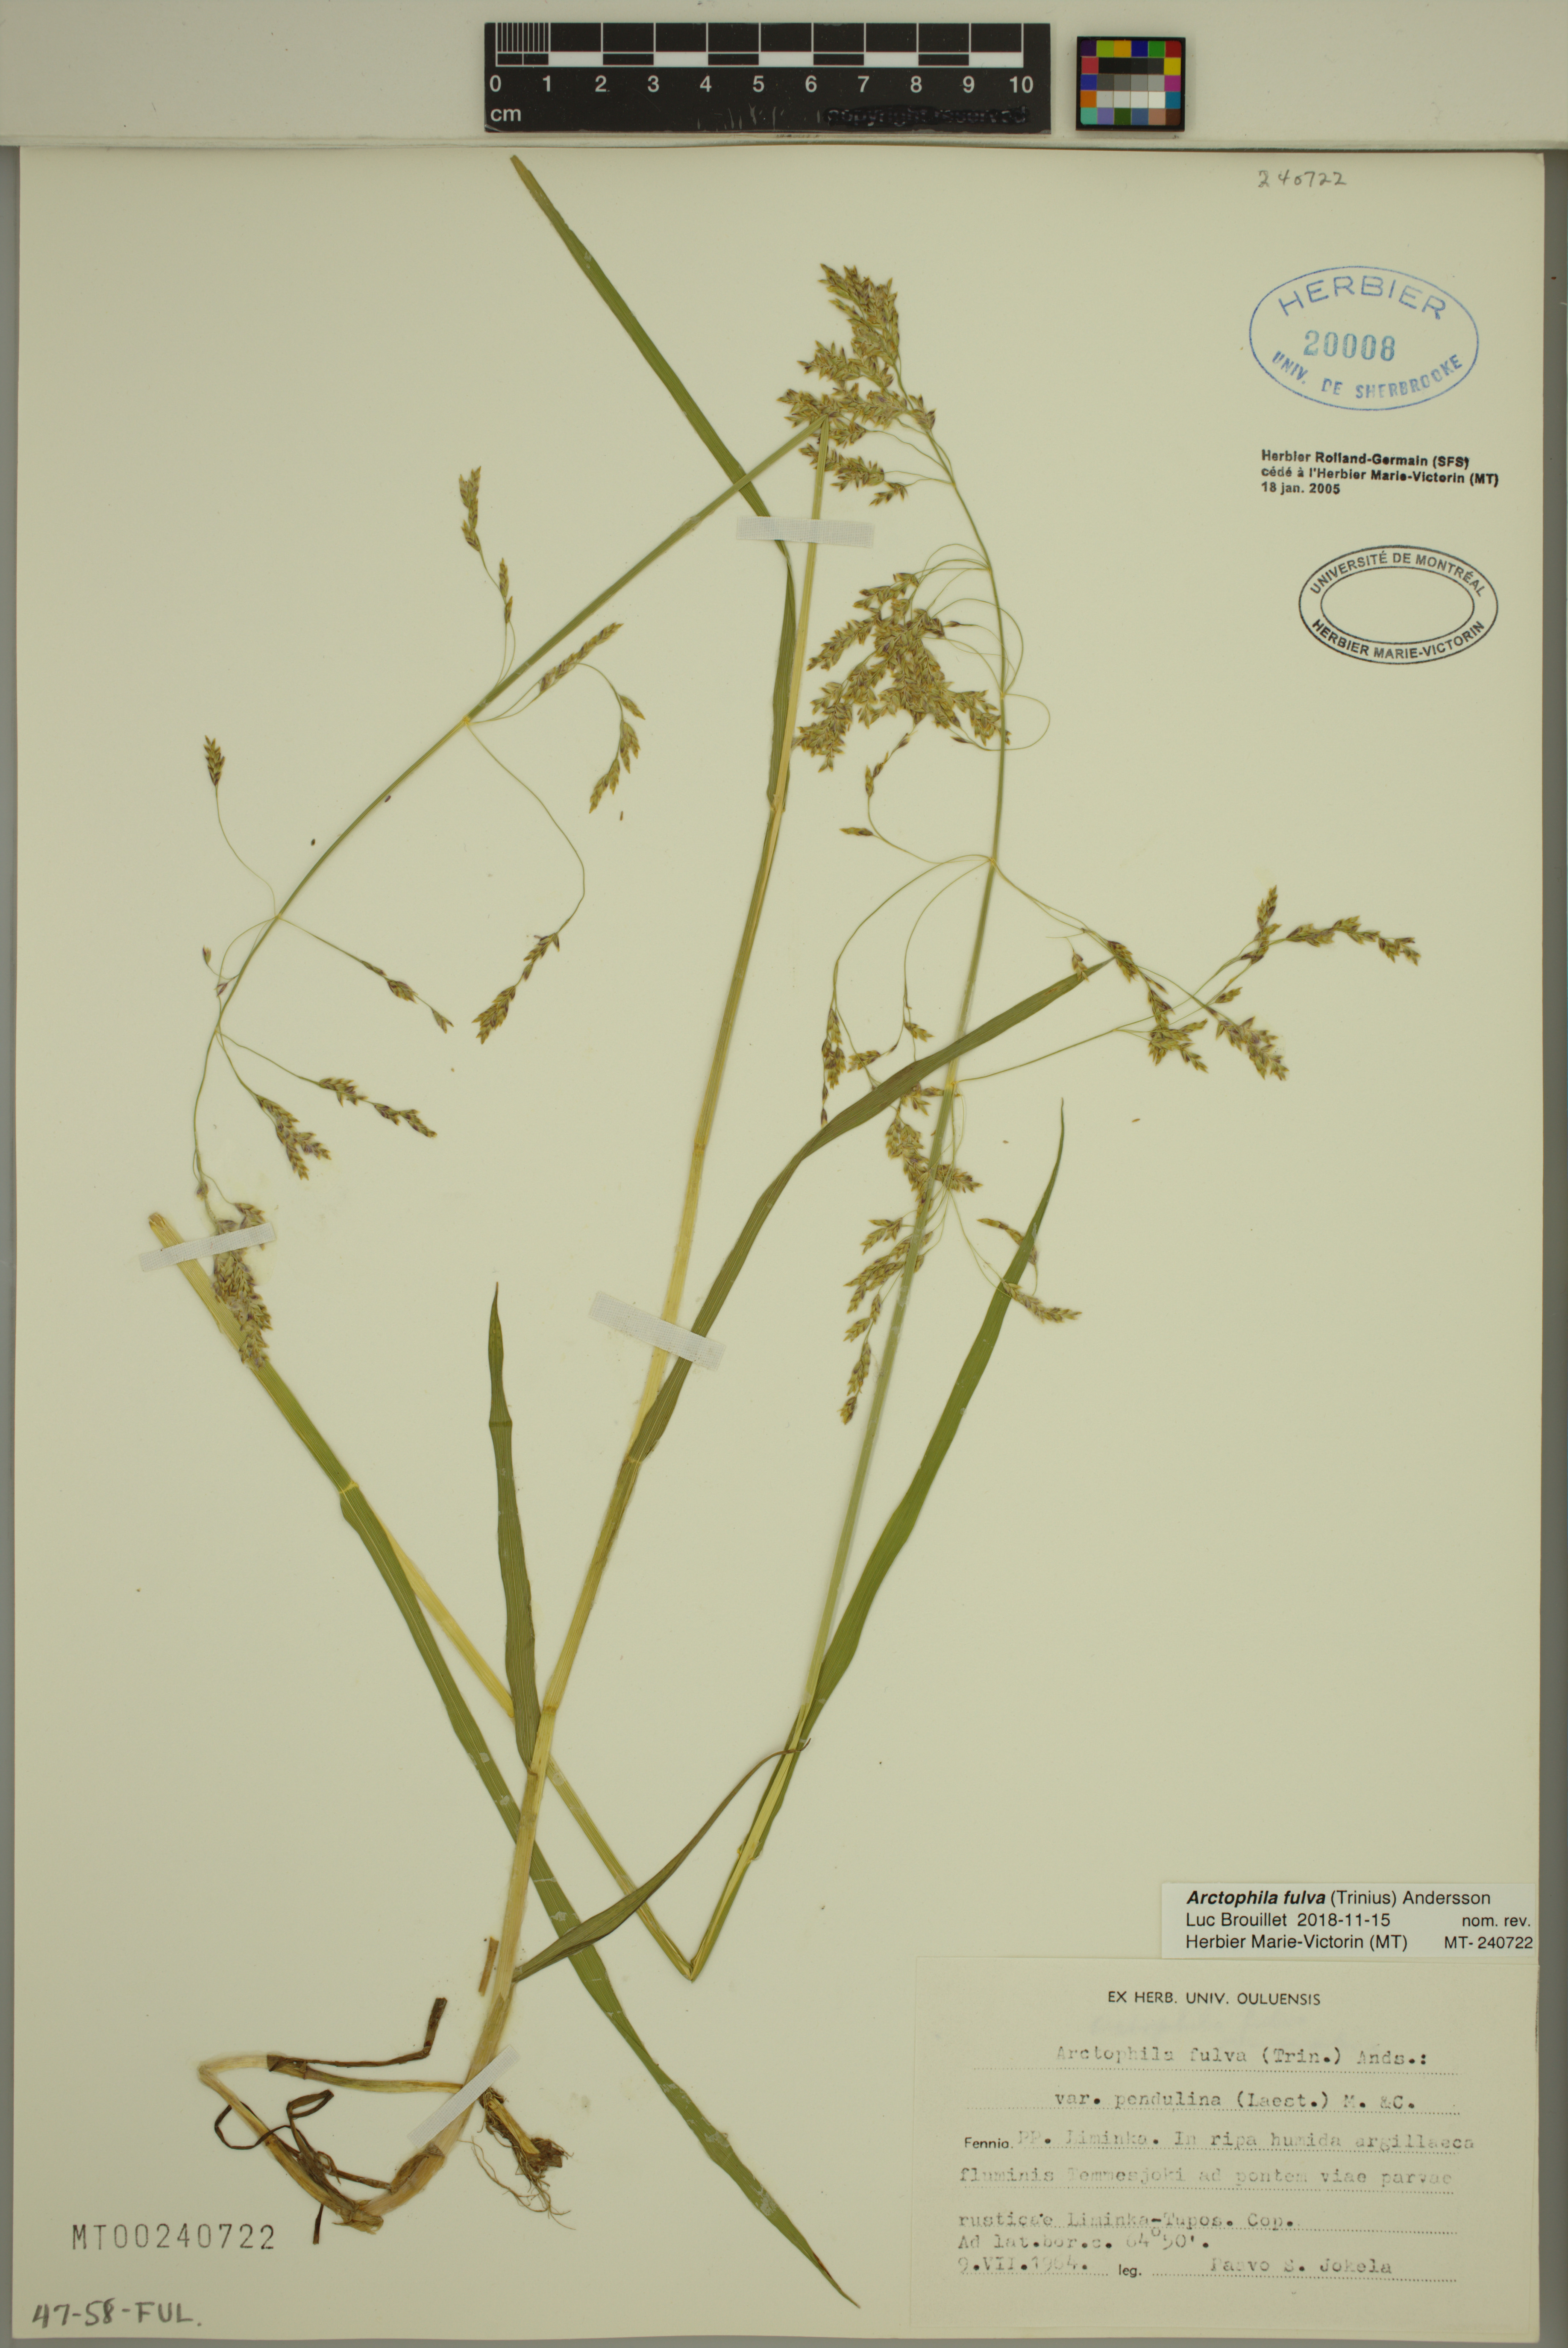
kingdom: Plantae
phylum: Tracheophyta
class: Liliopsida
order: Poales
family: Poaceae
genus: Dupontia
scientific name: Dupontia fulva
